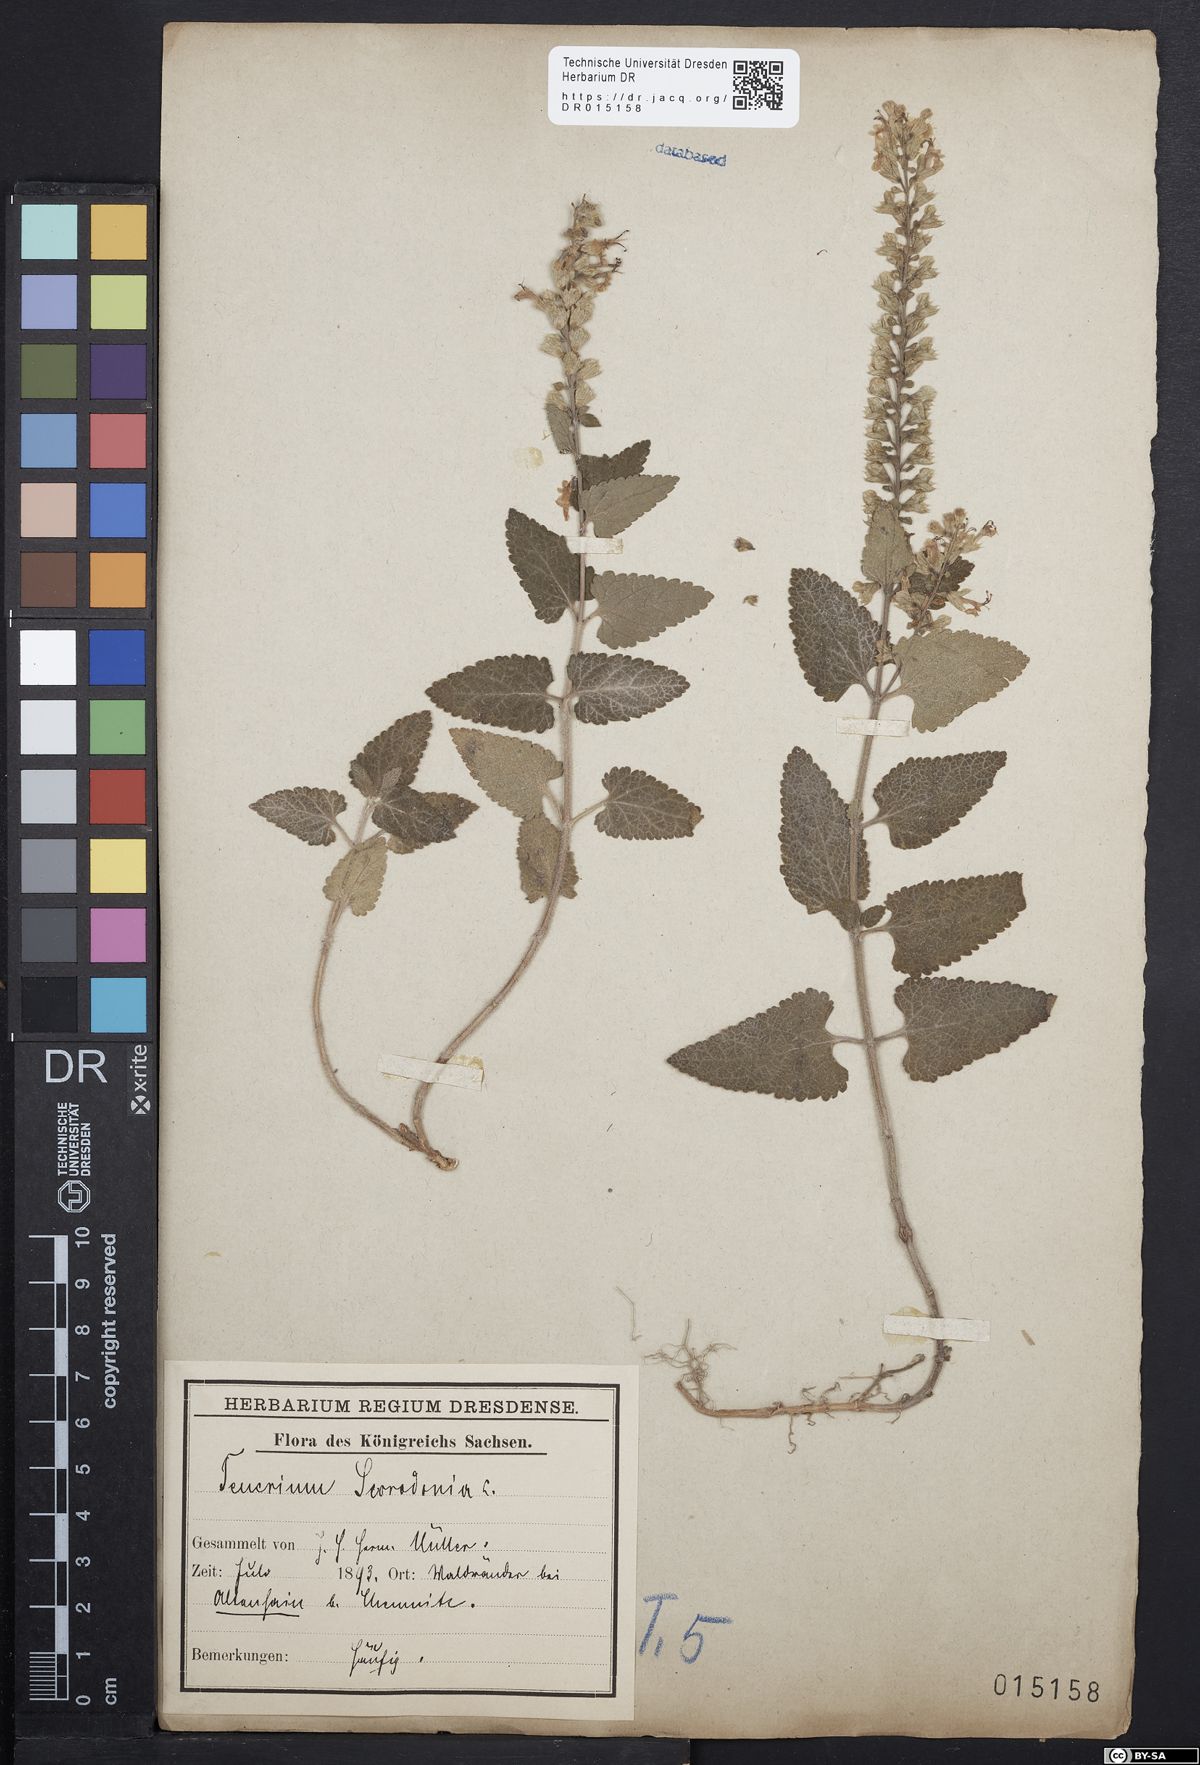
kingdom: Plantae
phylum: Tracheophyta
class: Magnoliopsida
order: Lamiales
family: Lamiaceae
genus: Teucrium
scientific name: Teucrium scorodonia
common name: Woodland germander
